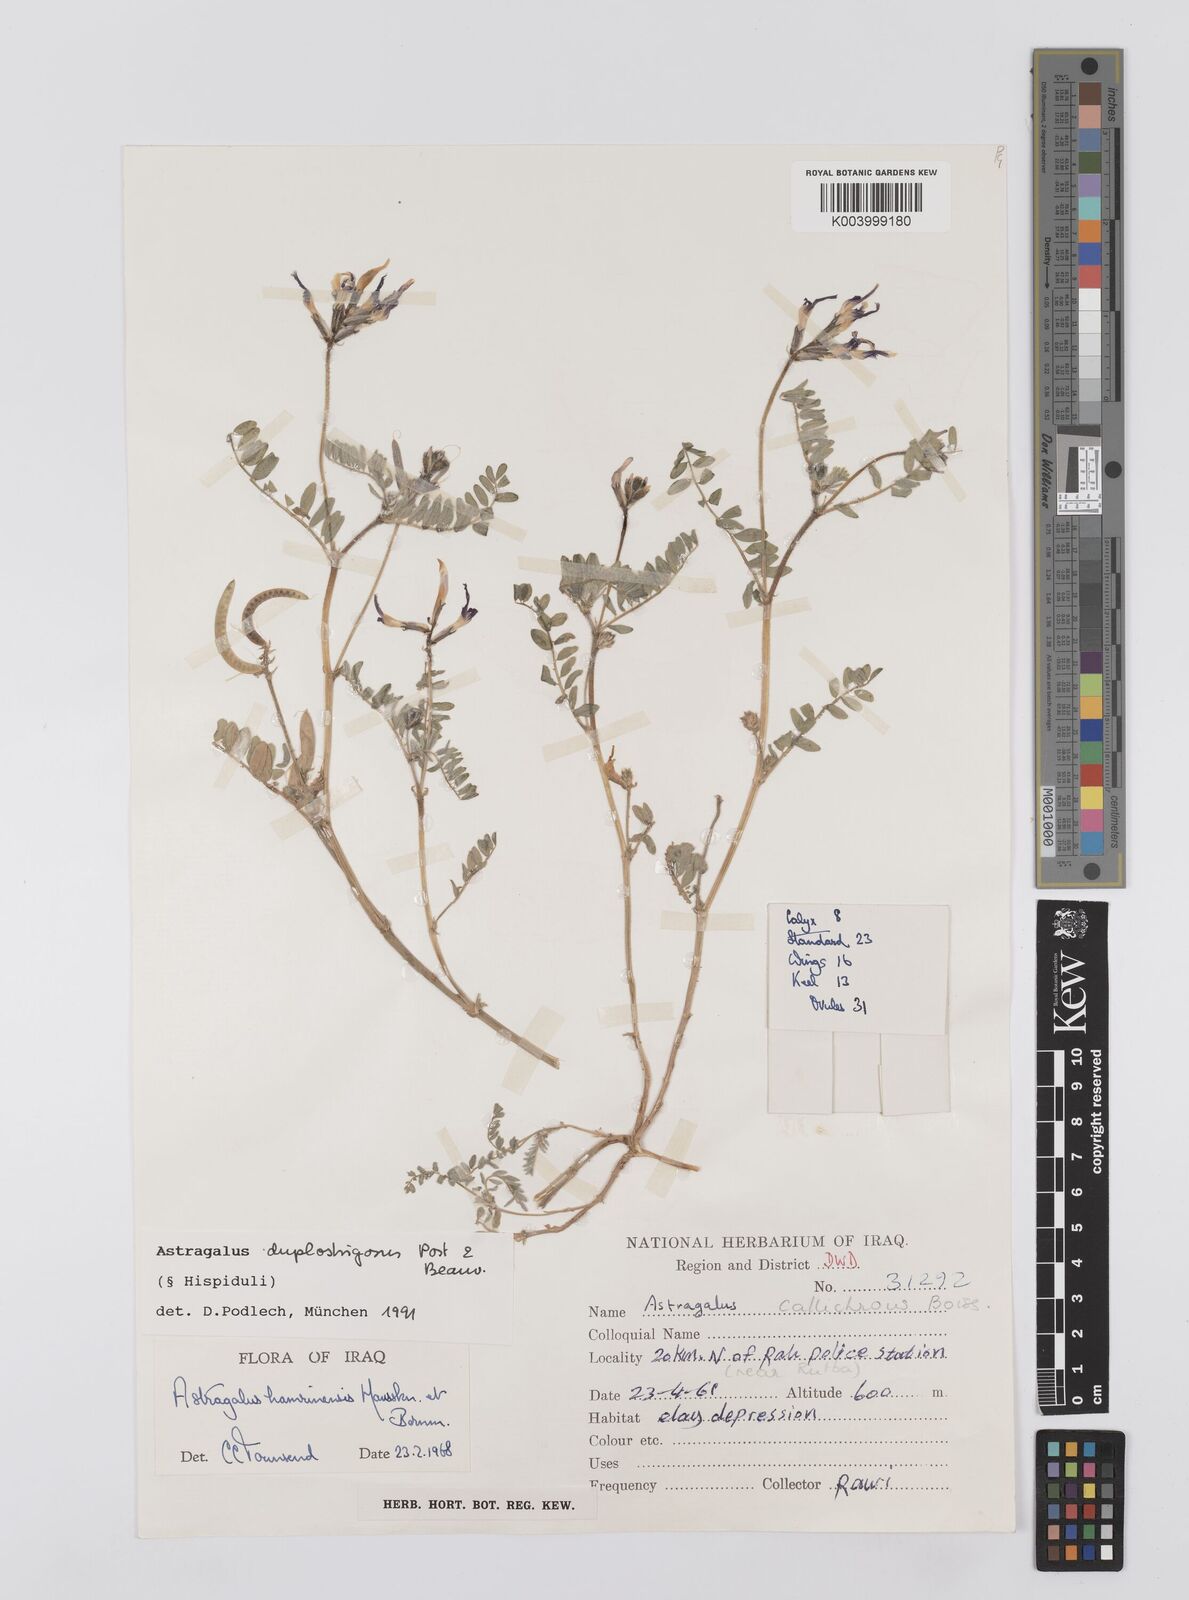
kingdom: Plantae
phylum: Tracheophyta
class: Magnoliopsida
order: Fabales
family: Fabaceae
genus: Astragalus
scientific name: Astragalus duplostrigosus
